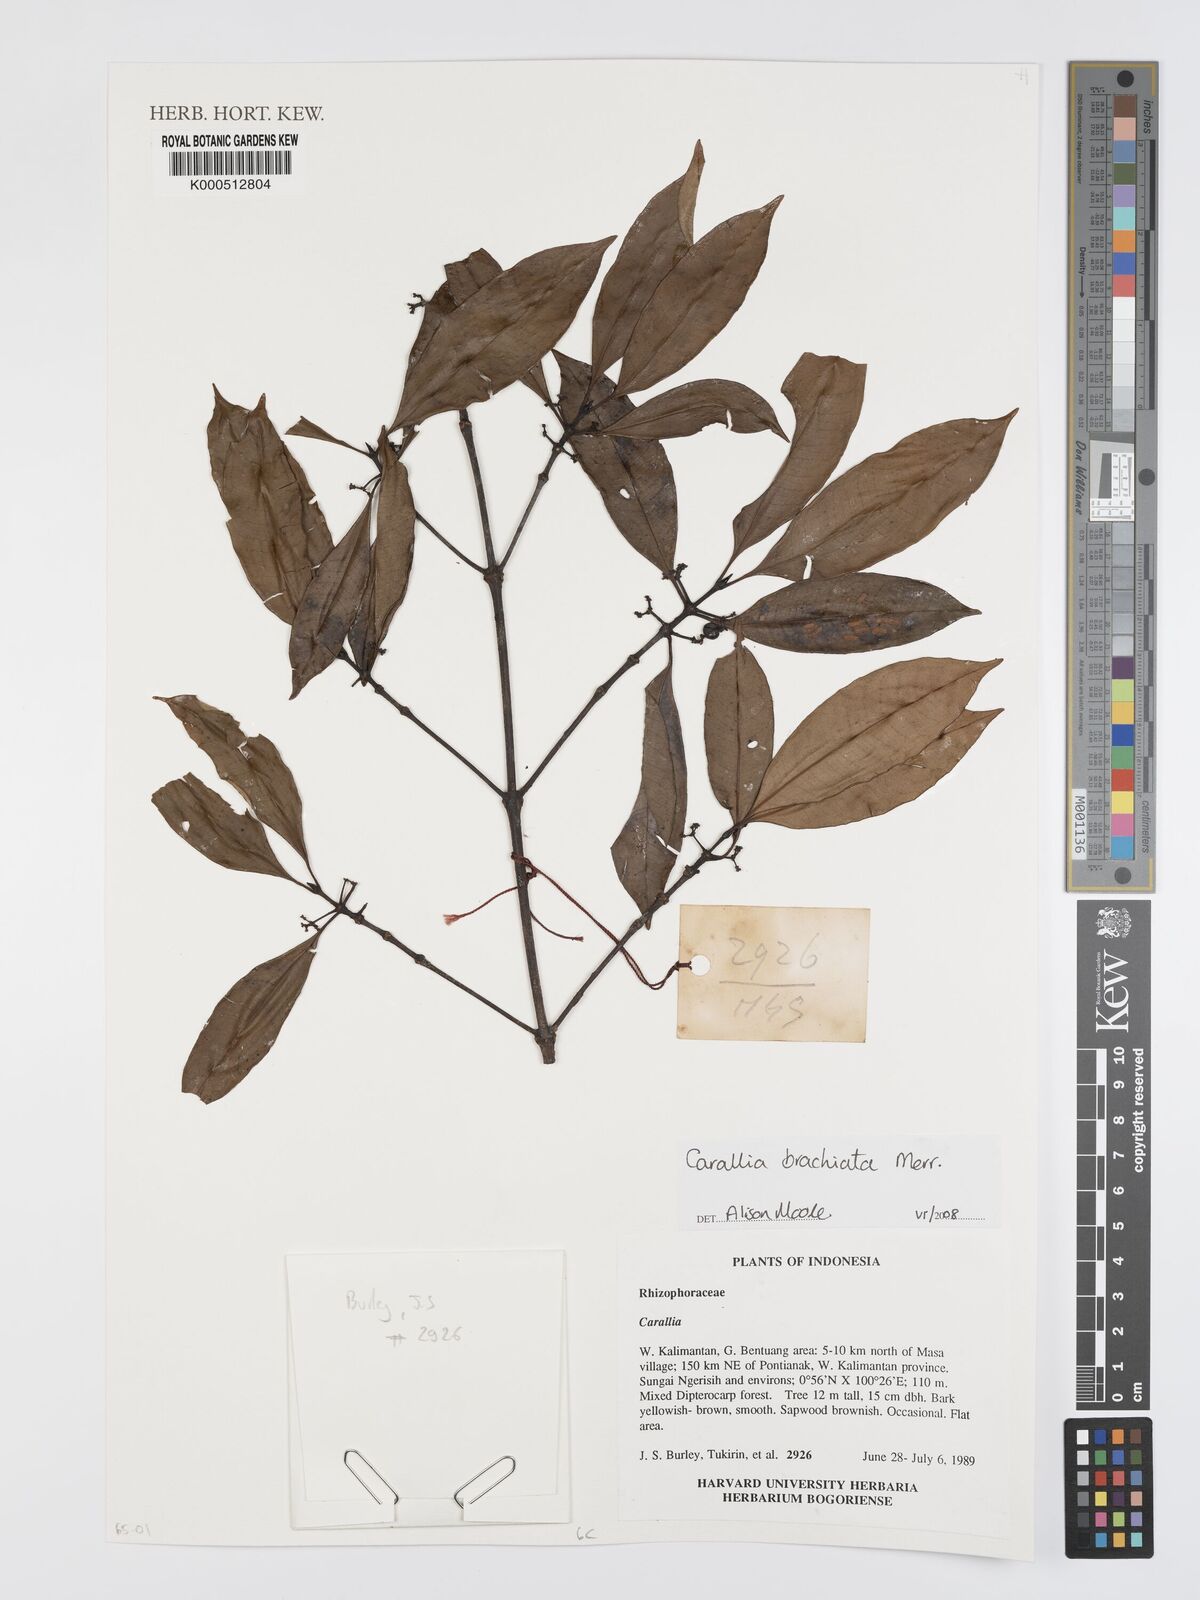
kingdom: Plantae
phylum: Tracheophyta
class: Magnoliopsida
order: Malpighiales
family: Rhizophoraceae
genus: Carallia
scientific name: Carallia brachiata
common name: Carallawood
